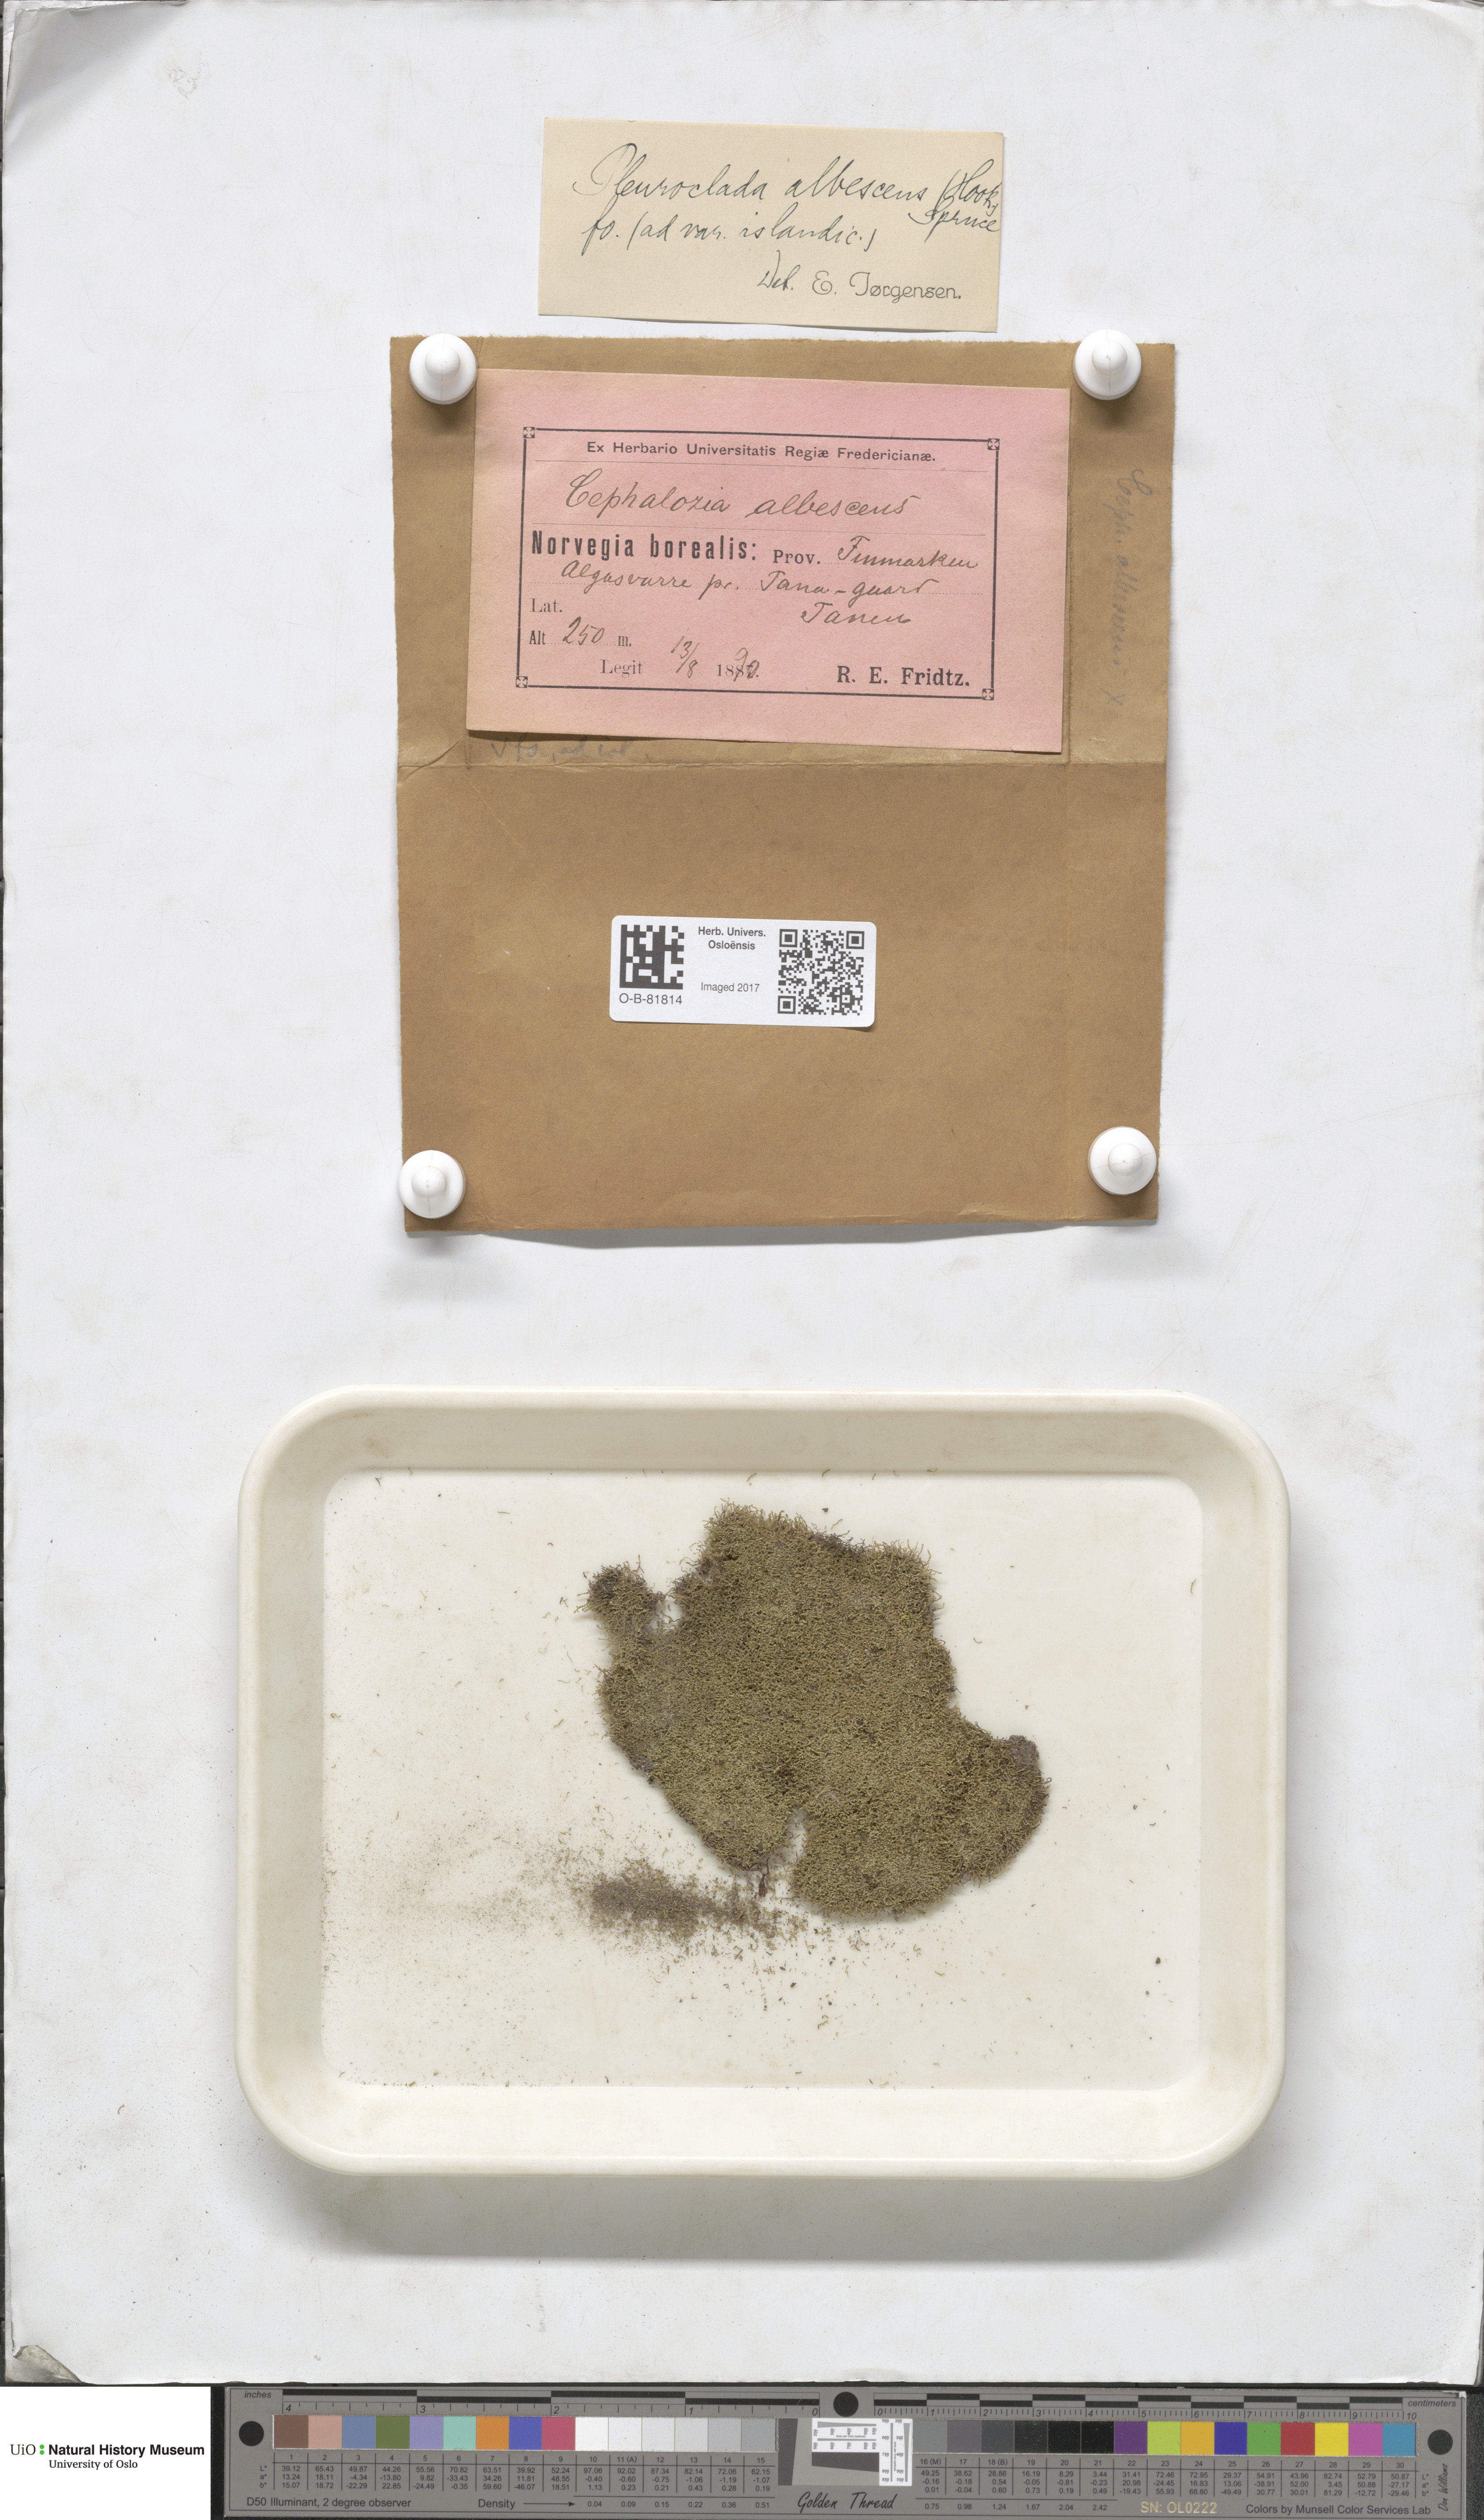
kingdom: Plantae
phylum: Marchantiophyta
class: Jungermanniopsida
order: Jungermanniales
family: Cephaloziaceae
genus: Fuscocephaloziopsis
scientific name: Fuscocephaloziopsis albescens
